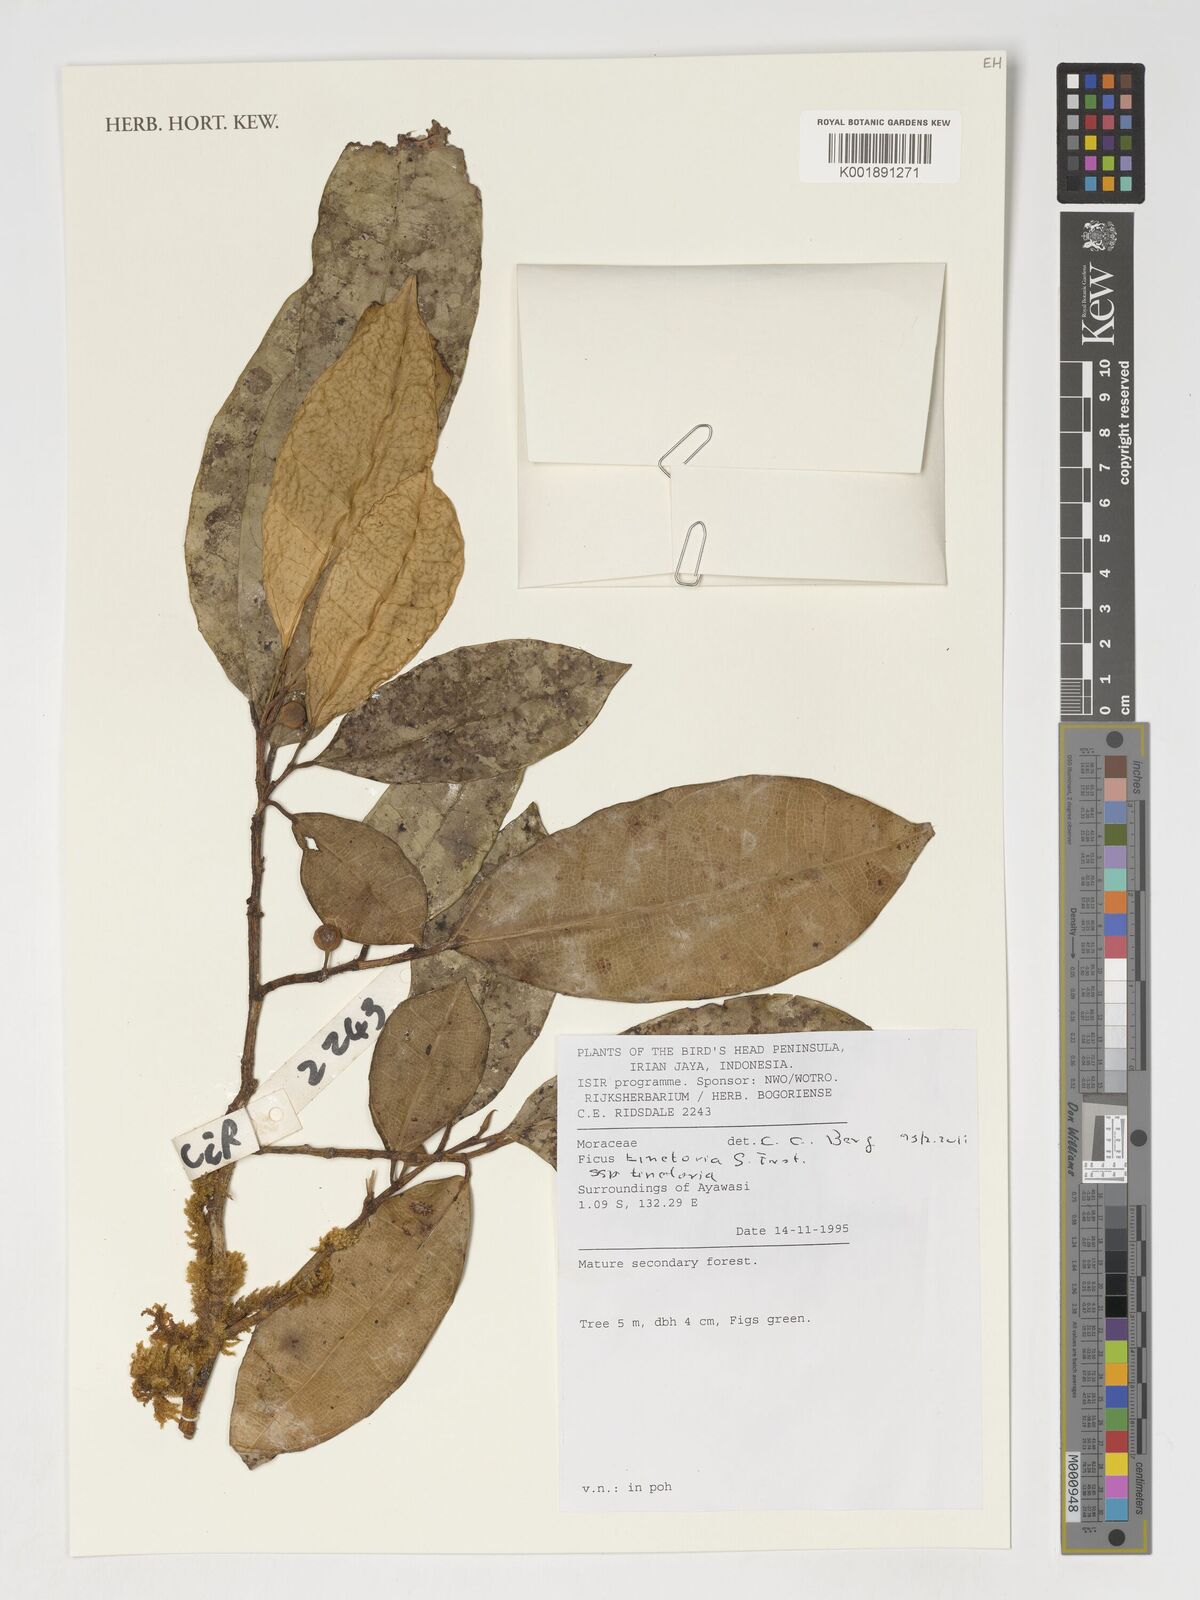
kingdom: Plantae
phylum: Tracheophyta
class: Magnoliopsida
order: Rosales
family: Moraceae
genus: Ficus
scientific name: Ficus tinctoria
